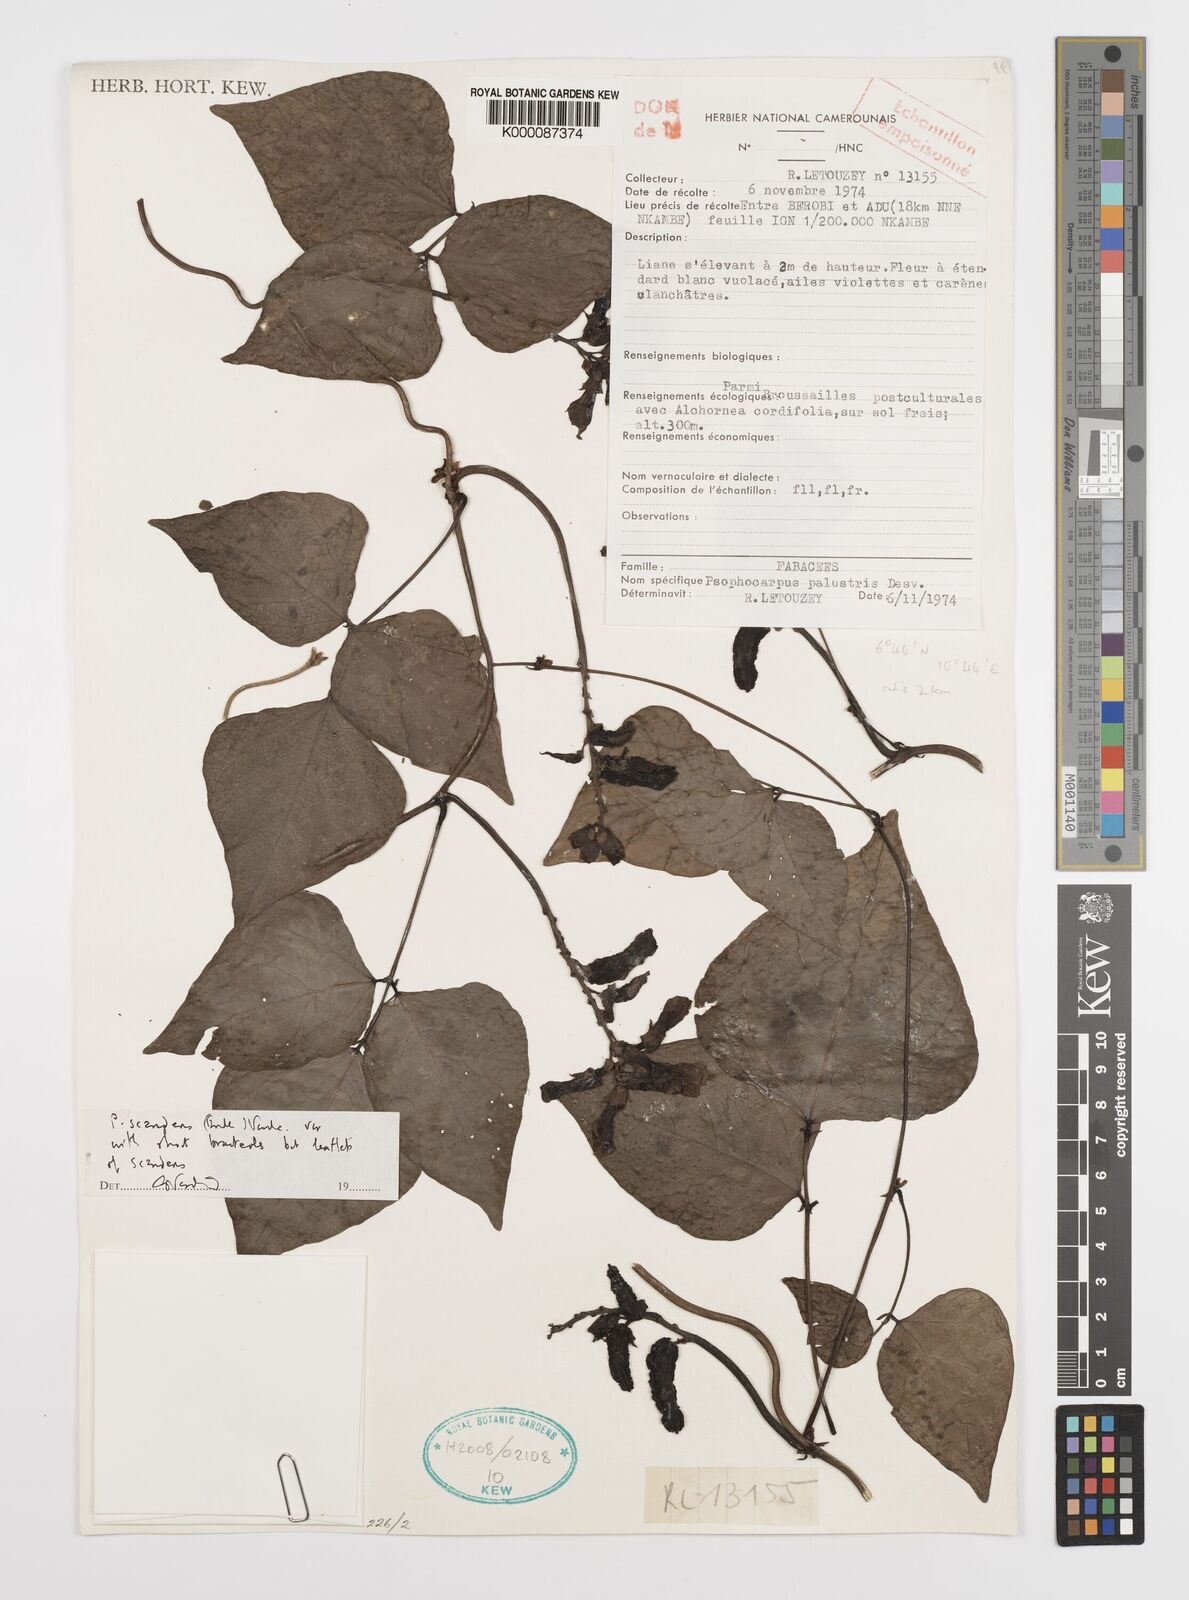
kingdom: Plantae
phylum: Tracheophyta
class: Magnoliopsida
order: Fabales
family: Fabaceae
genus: Psophocarpus
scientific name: Psophocarpus scandens
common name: Tropical african winged-bean
